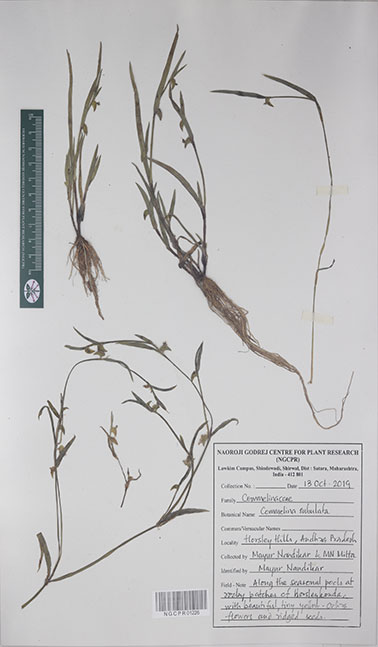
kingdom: Plantae
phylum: Tracheophyta
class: Liliopsida
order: Commelinales
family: Commelinaceae
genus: Commelina
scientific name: Commelina subulata
